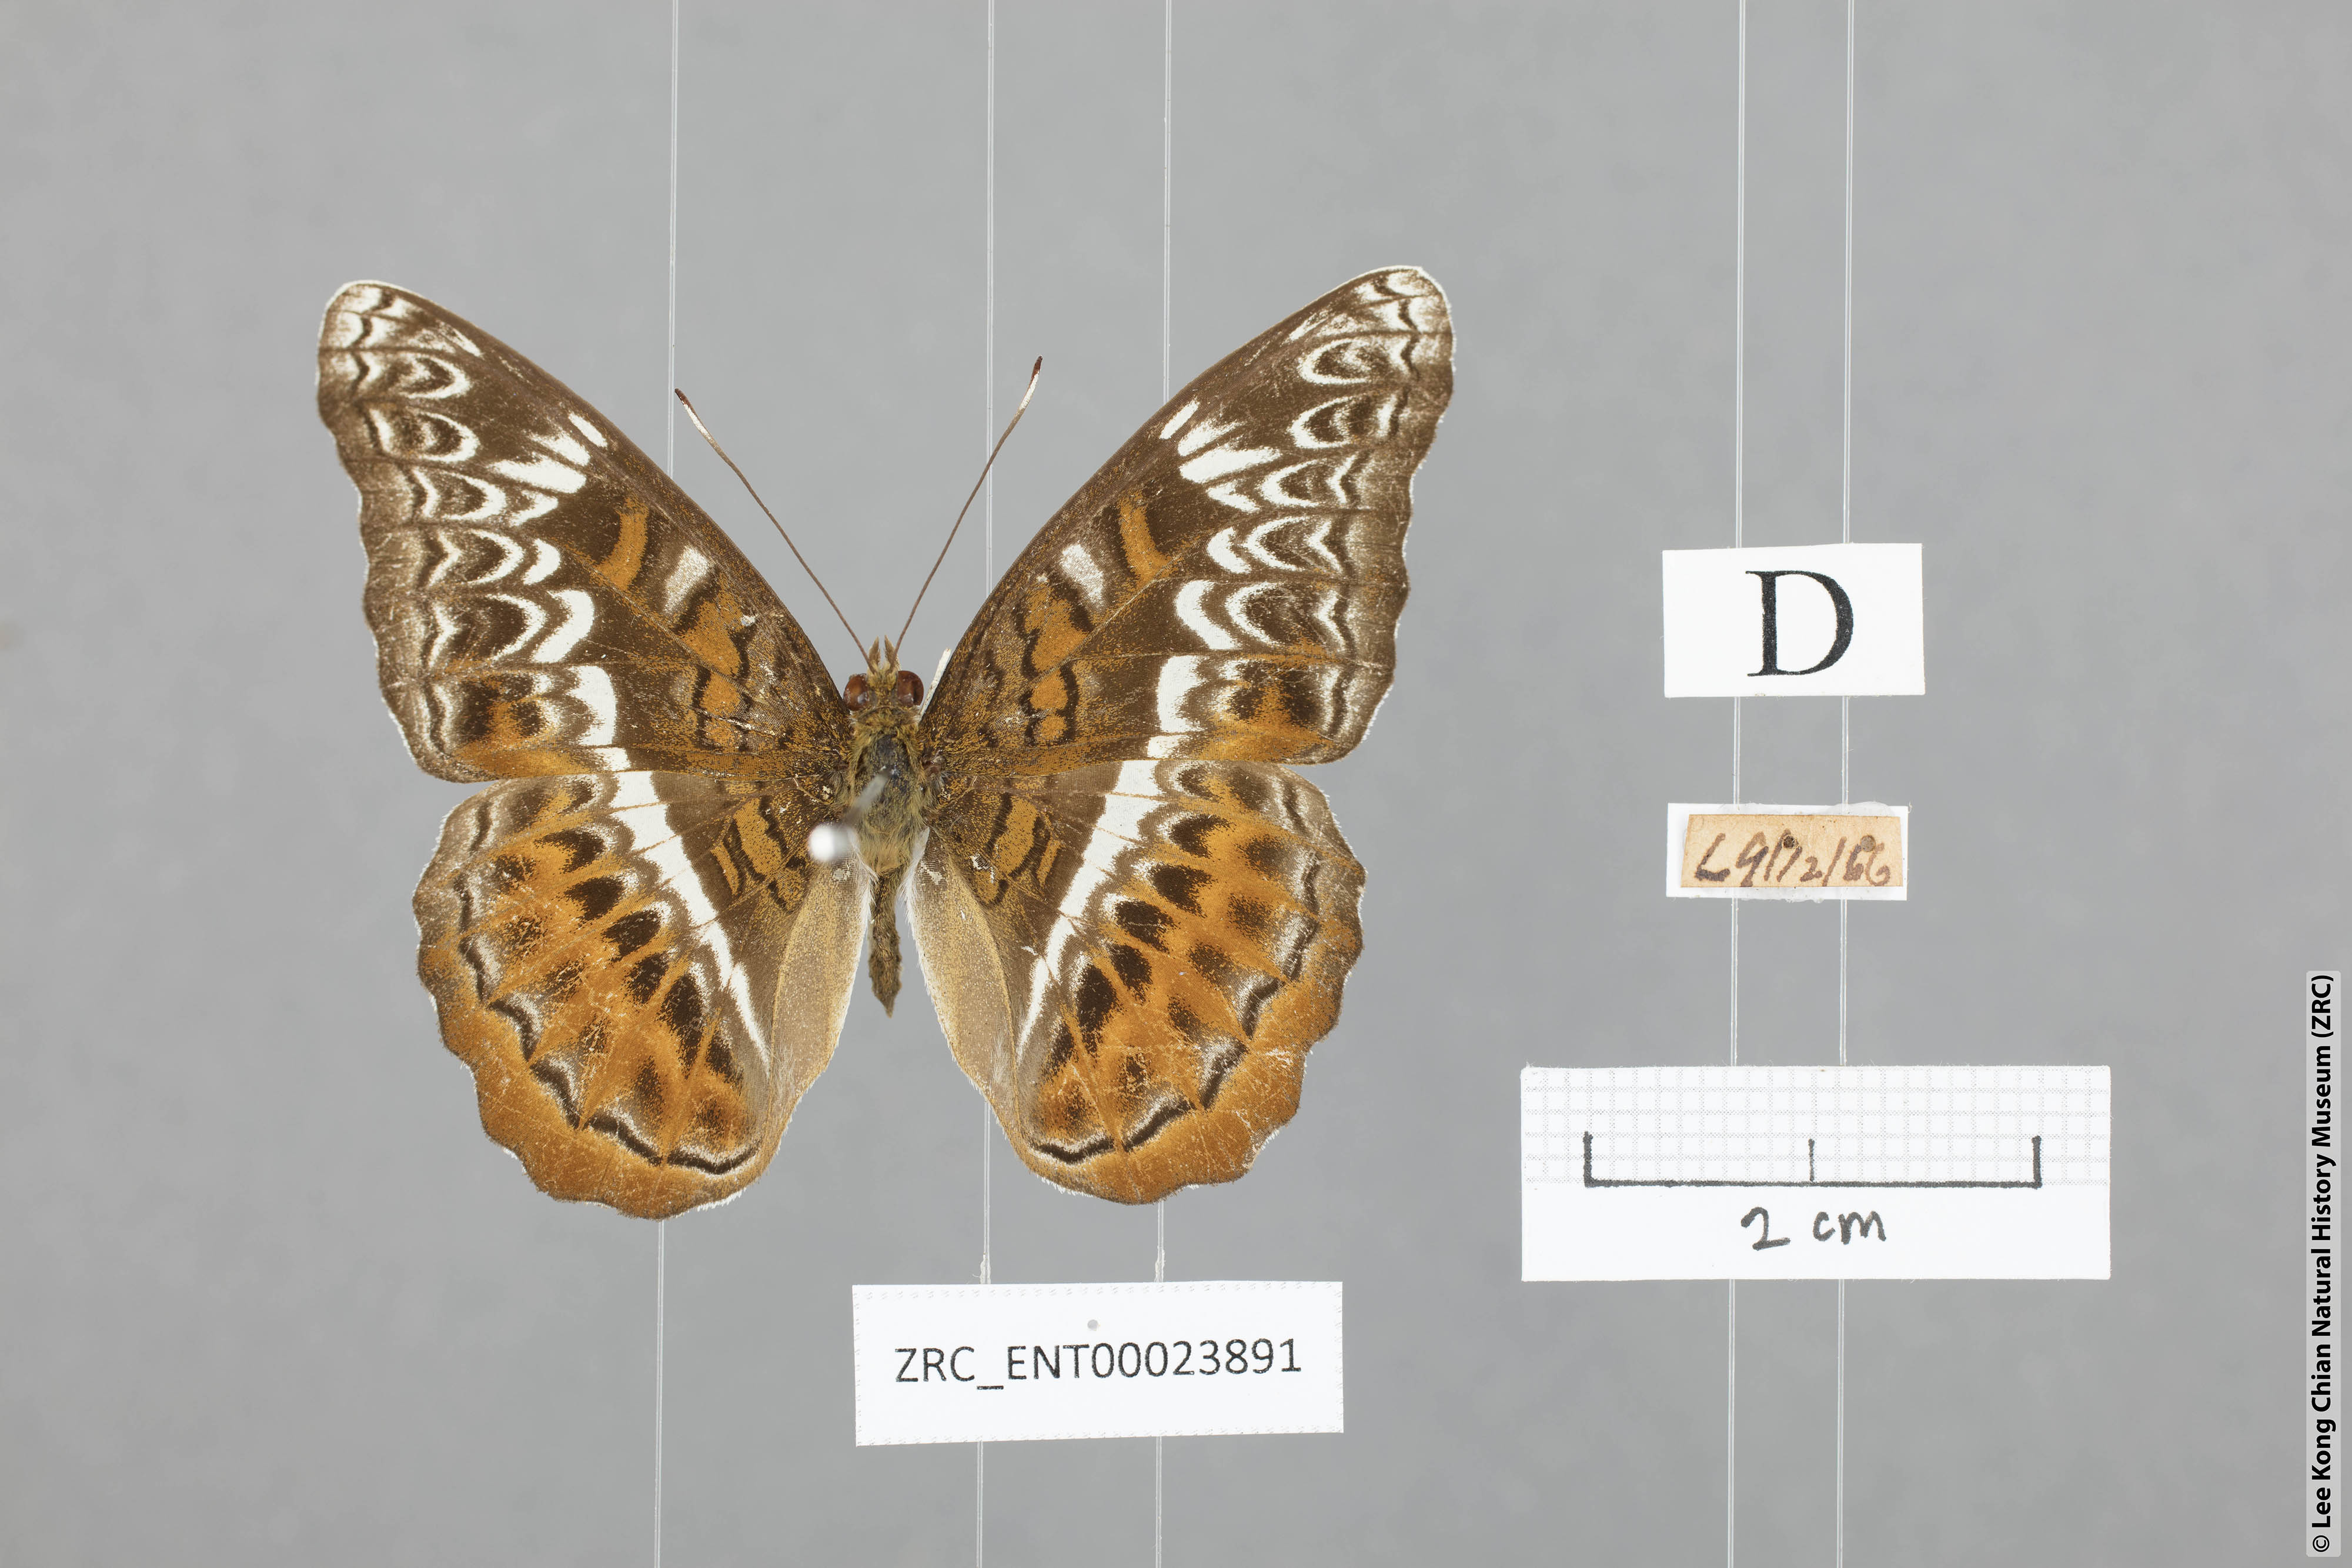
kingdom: Animalia
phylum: Arthropoda
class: Insecta
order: Lepidoptera
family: Nymphalidae
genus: Lebadea
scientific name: Lebadea martha
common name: Knight
